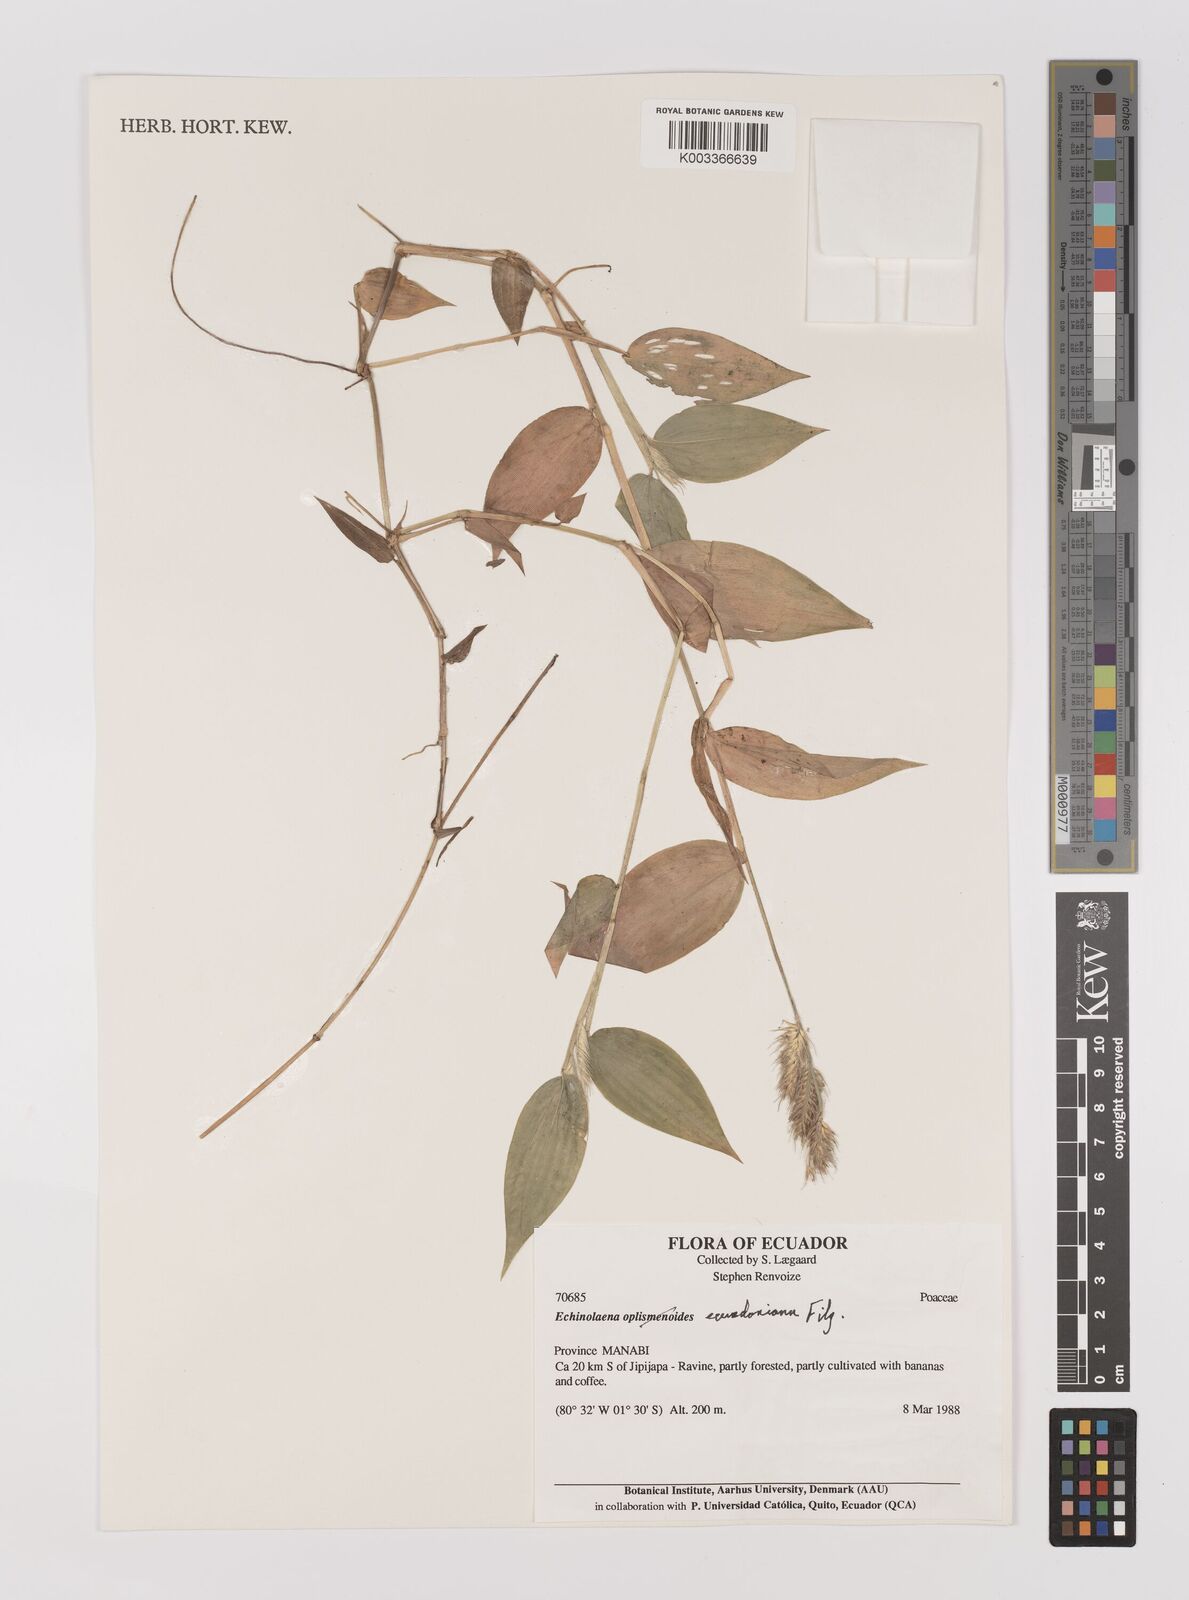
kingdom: Plantae
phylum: Tracheophyta
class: Liliopsida
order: Poales
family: Poaceae
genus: Oedochloa
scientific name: Oedochloa ecuadoriana
